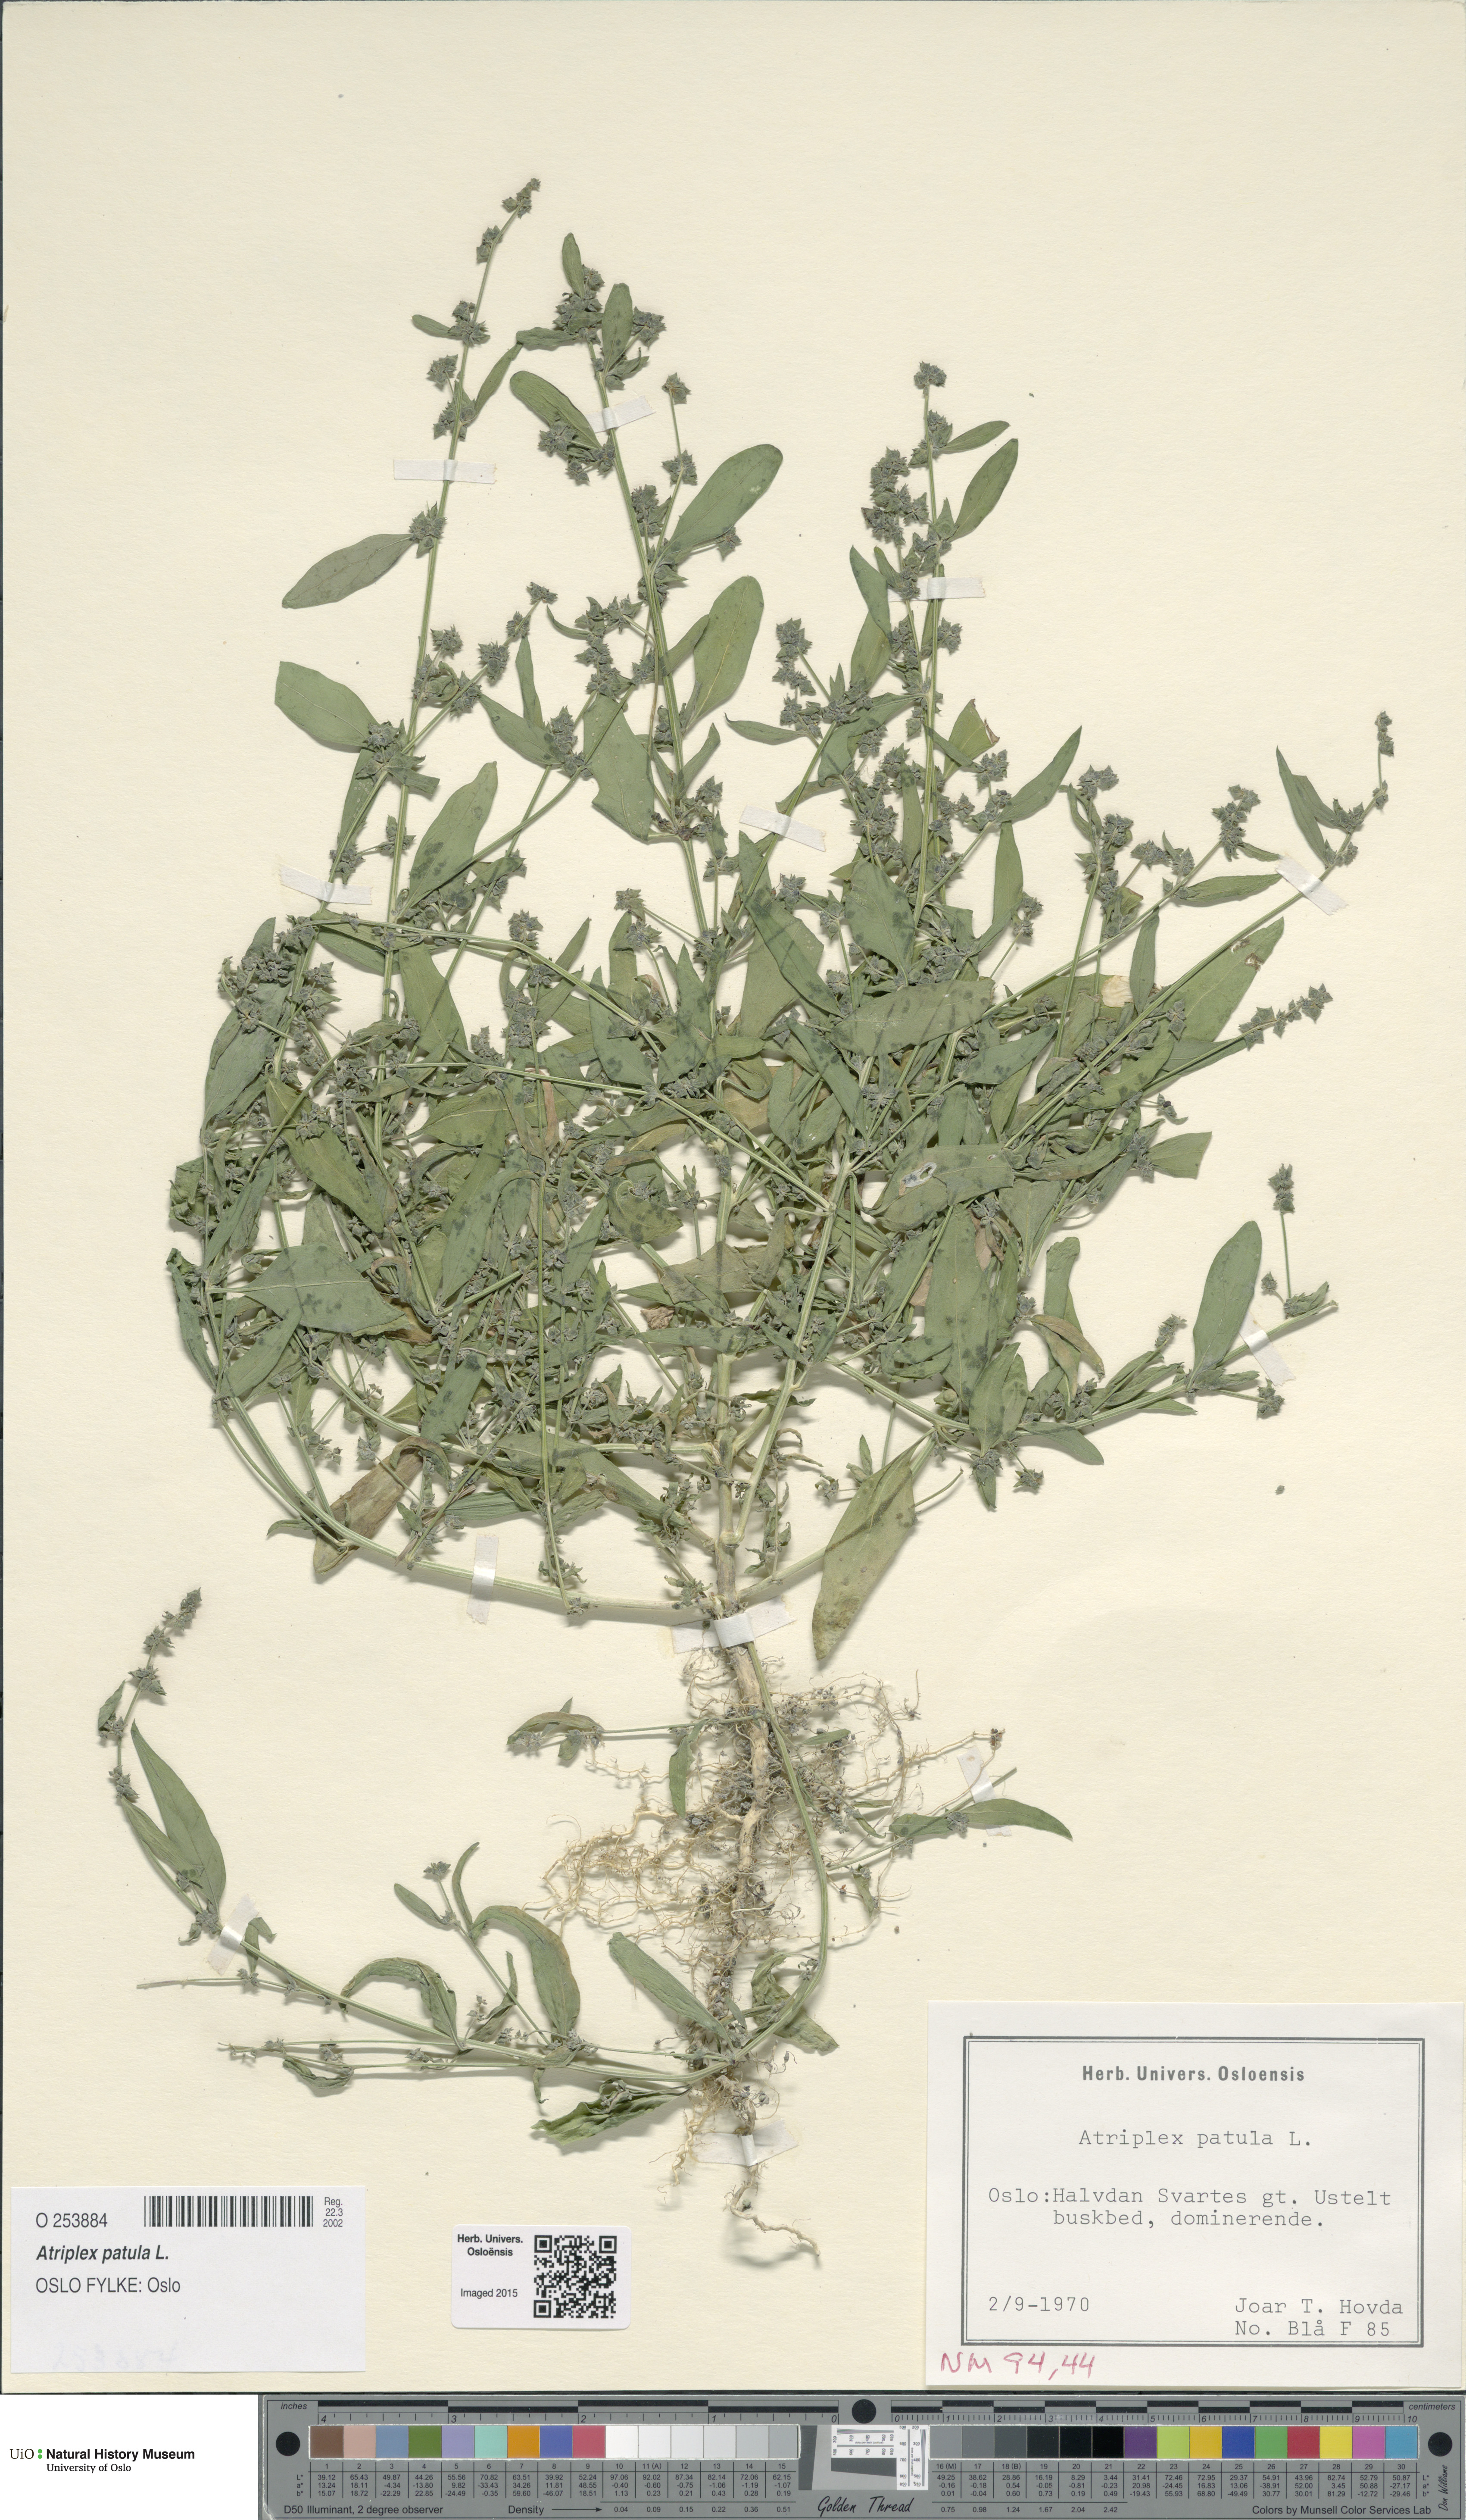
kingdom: Plantae
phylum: Tracheophyta
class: Magnoliopsida
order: Caryophyllales
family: Amaranthaceae
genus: Atriplex
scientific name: Atriplex patula
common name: Common orache
